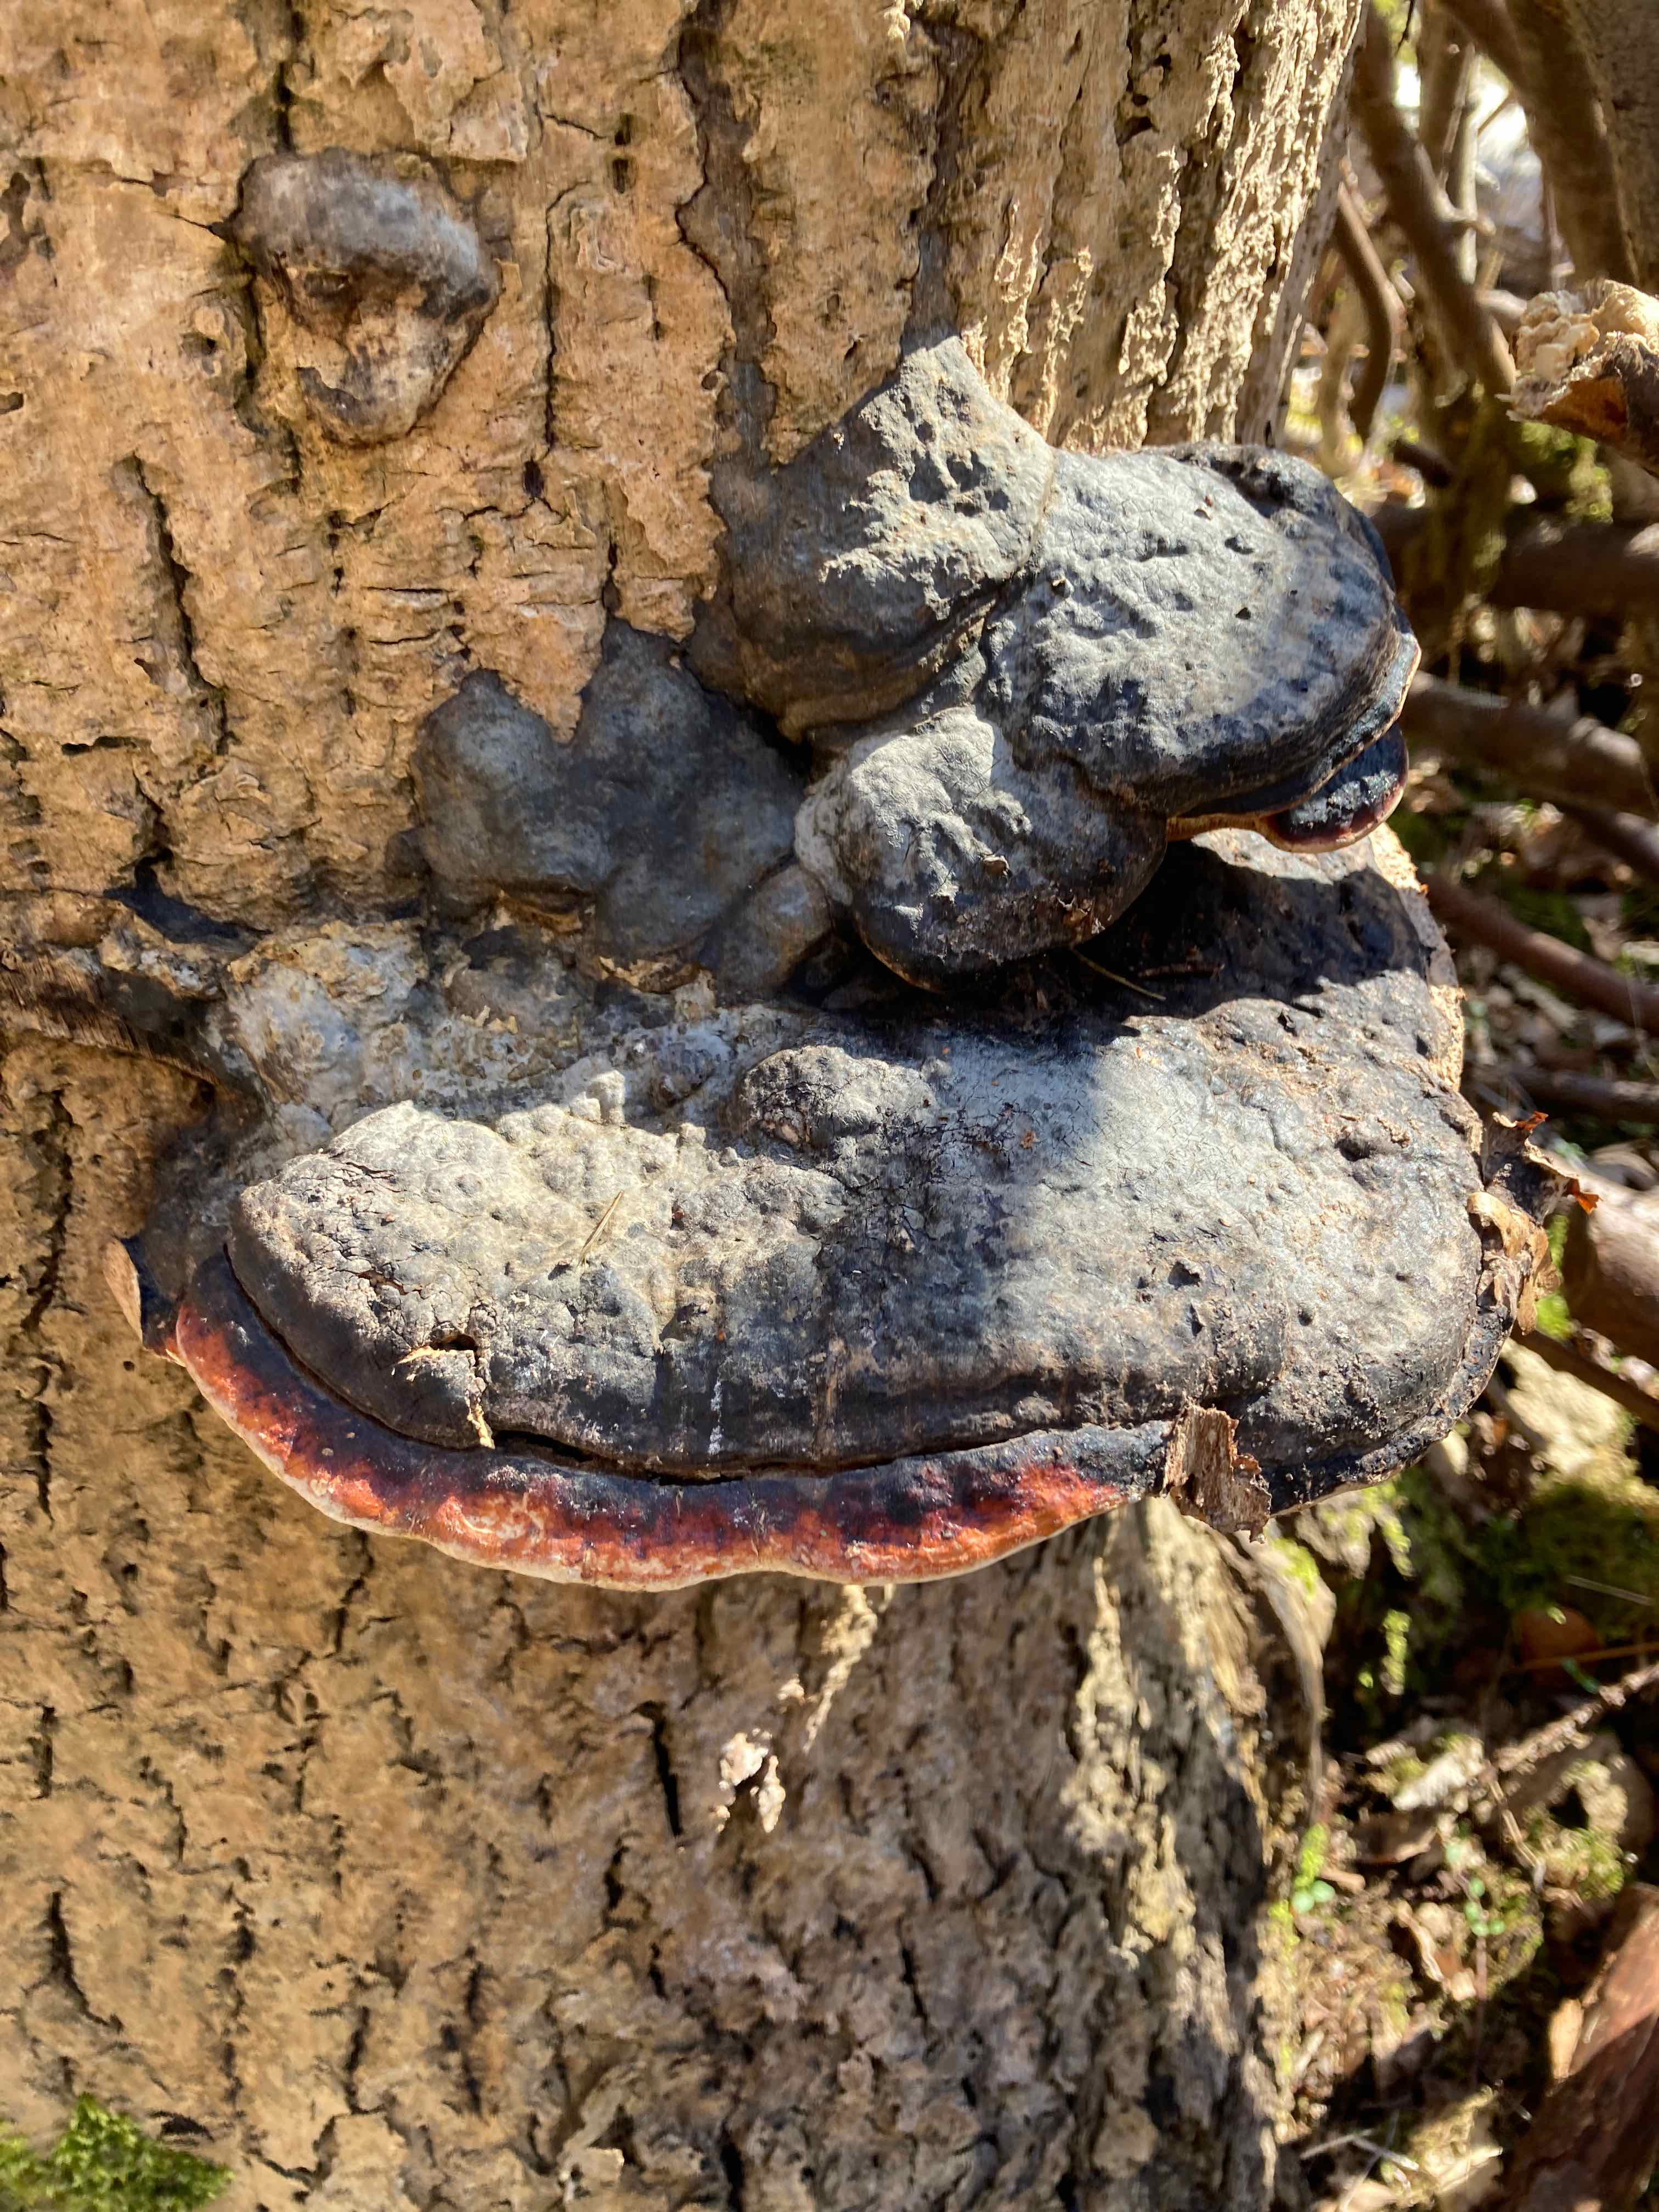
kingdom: Fungi
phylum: Basidiomycota
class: Agaricomycetes
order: Polyporales
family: Fomitopsidaceae
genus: Fomitopsis
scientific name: Fomitopsis pinicola
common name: randbæltet hovporesvamp
